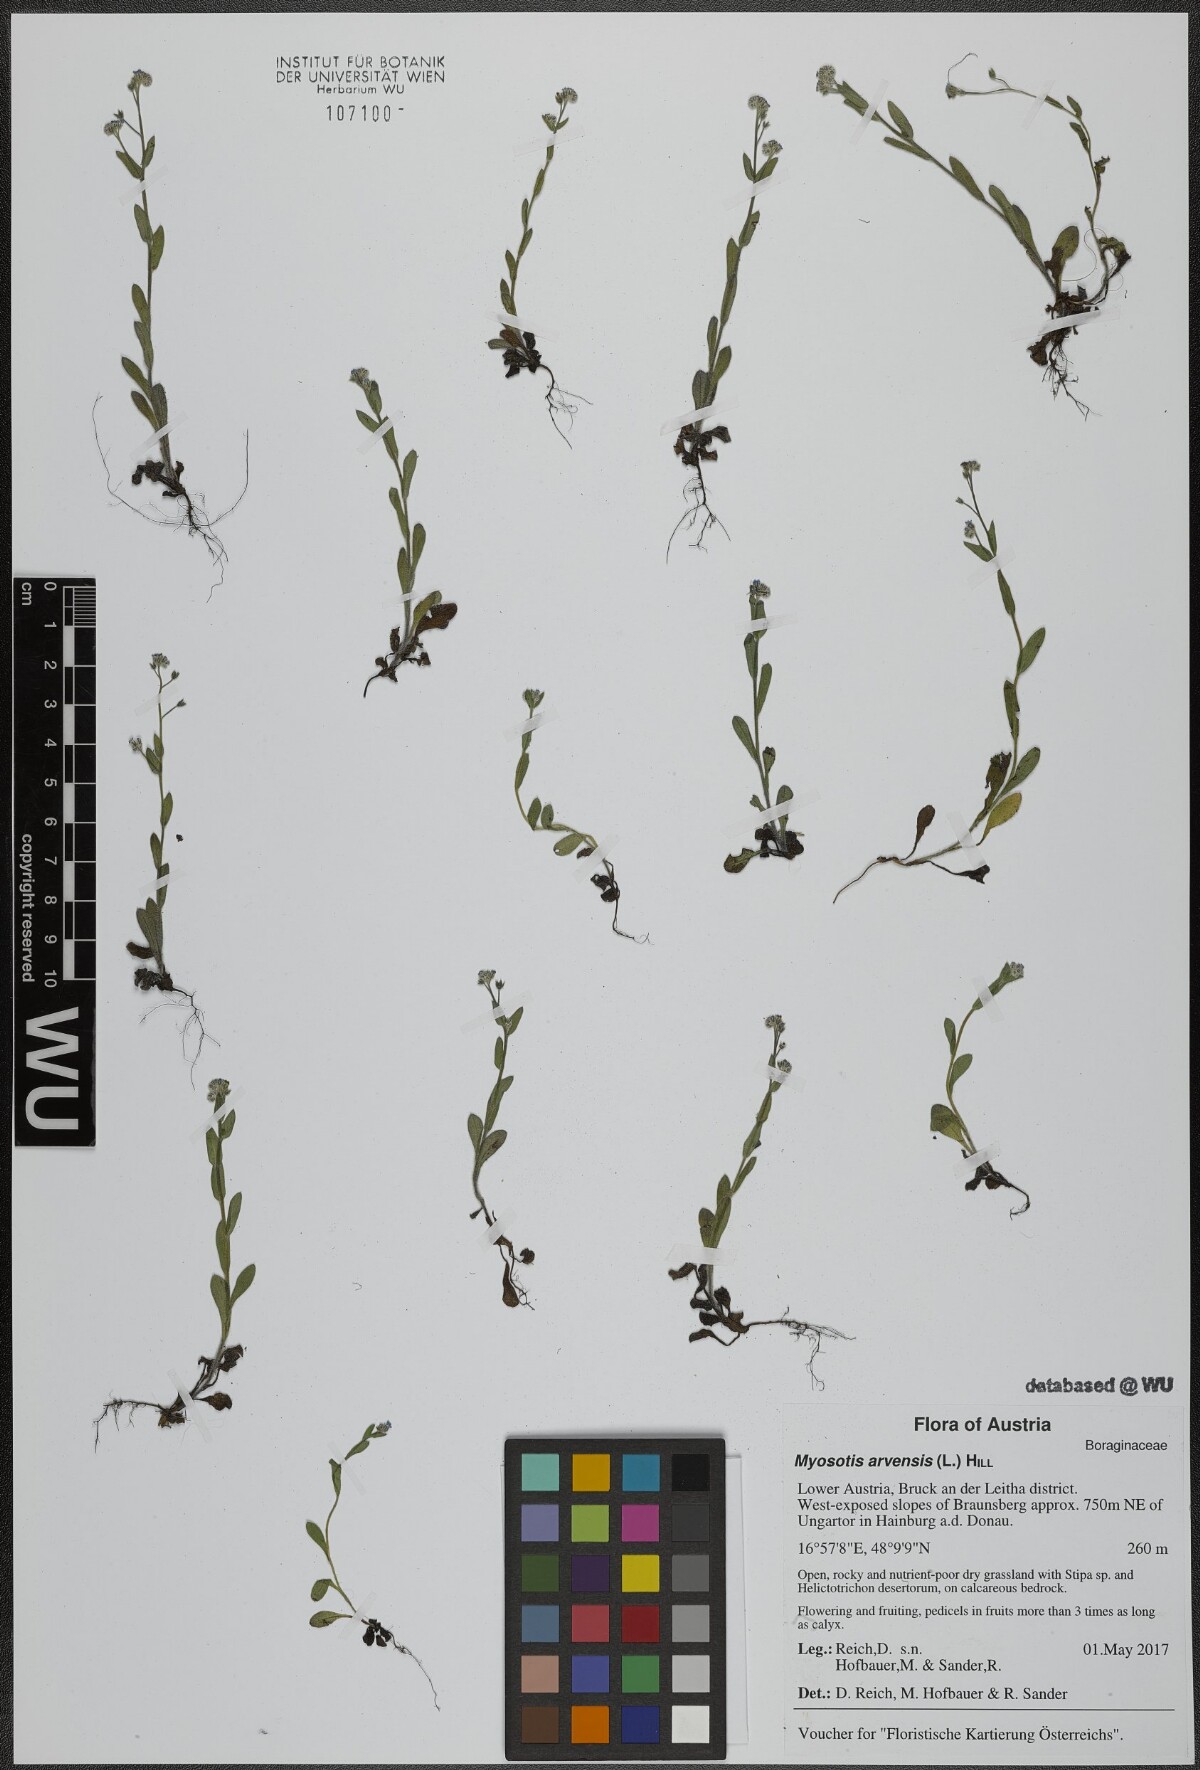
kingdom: Plantae
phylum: Tracheophyta
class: Magnoliopsida
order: Boraginales
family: Boraginaceae
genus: Myosotis
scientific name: Myosotis arvensis
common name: Field forget-me-not
